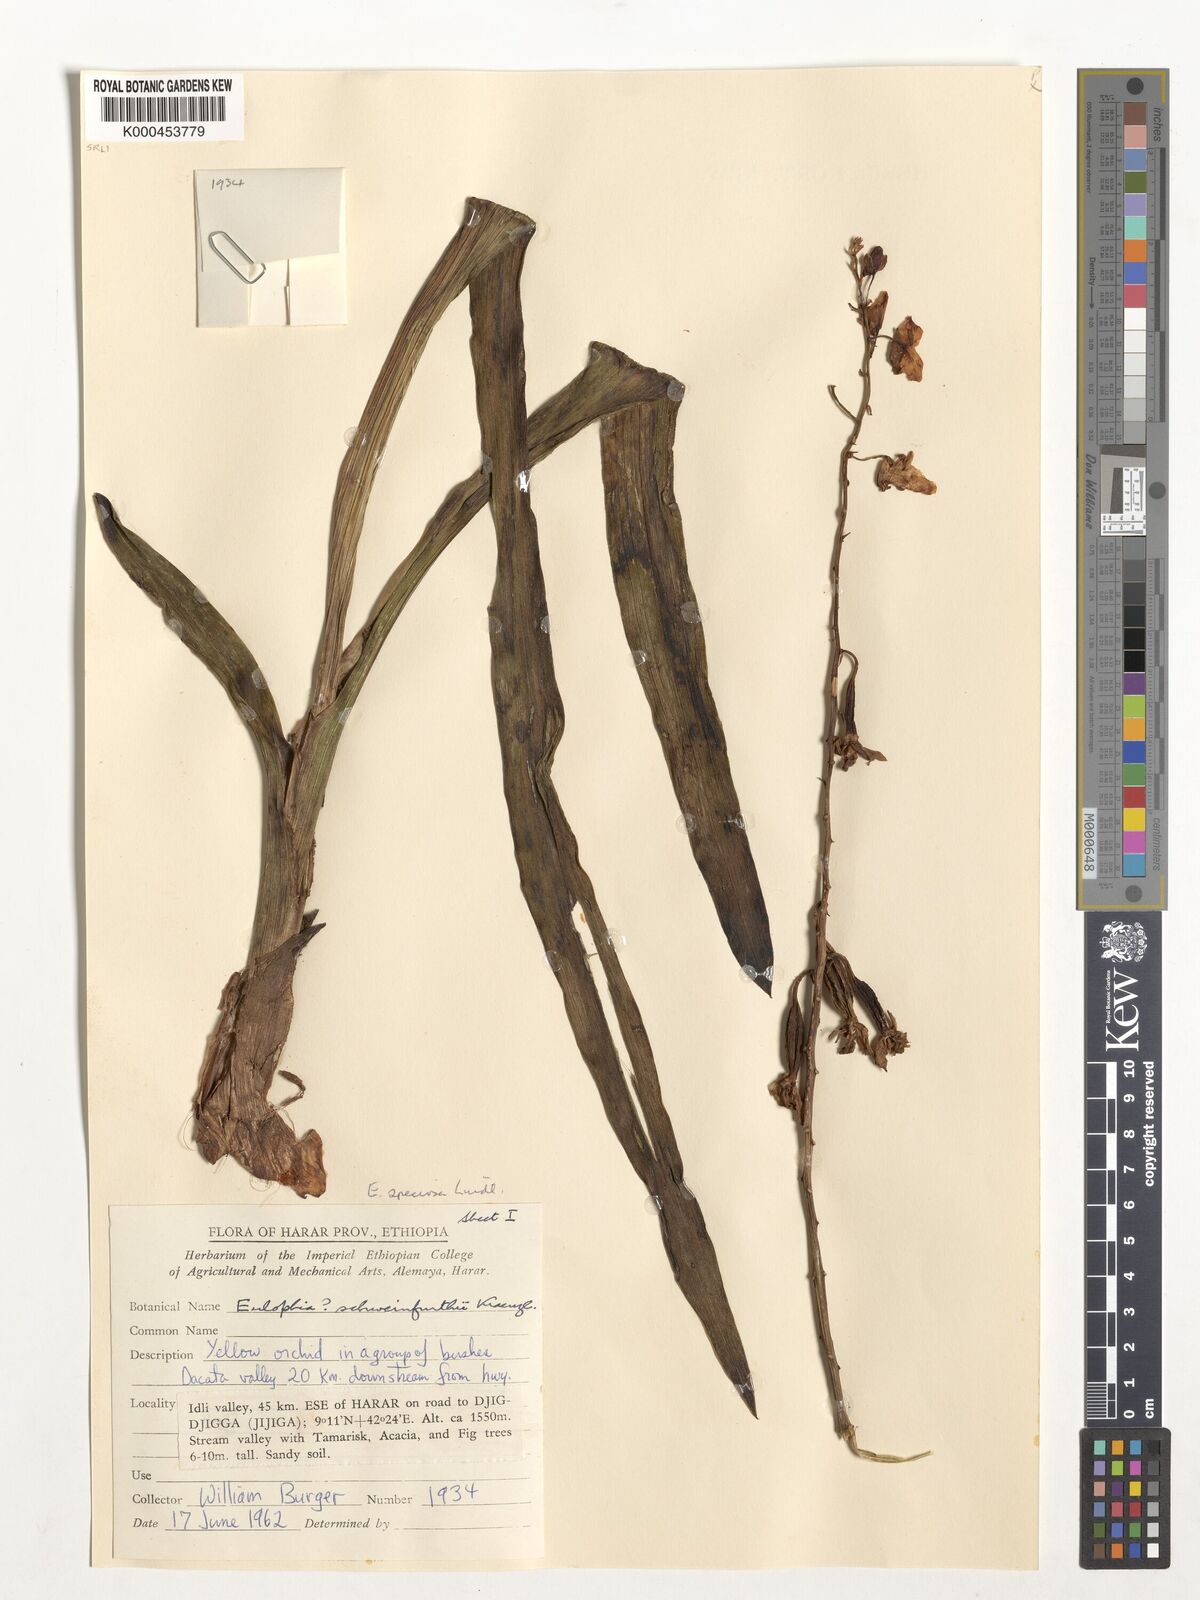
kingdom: Plantae
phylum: Tracheophyta
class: Liliopsida
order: Asparagales
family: Orchidaceae
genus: Eulophia
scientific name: Eulophia speciosa
